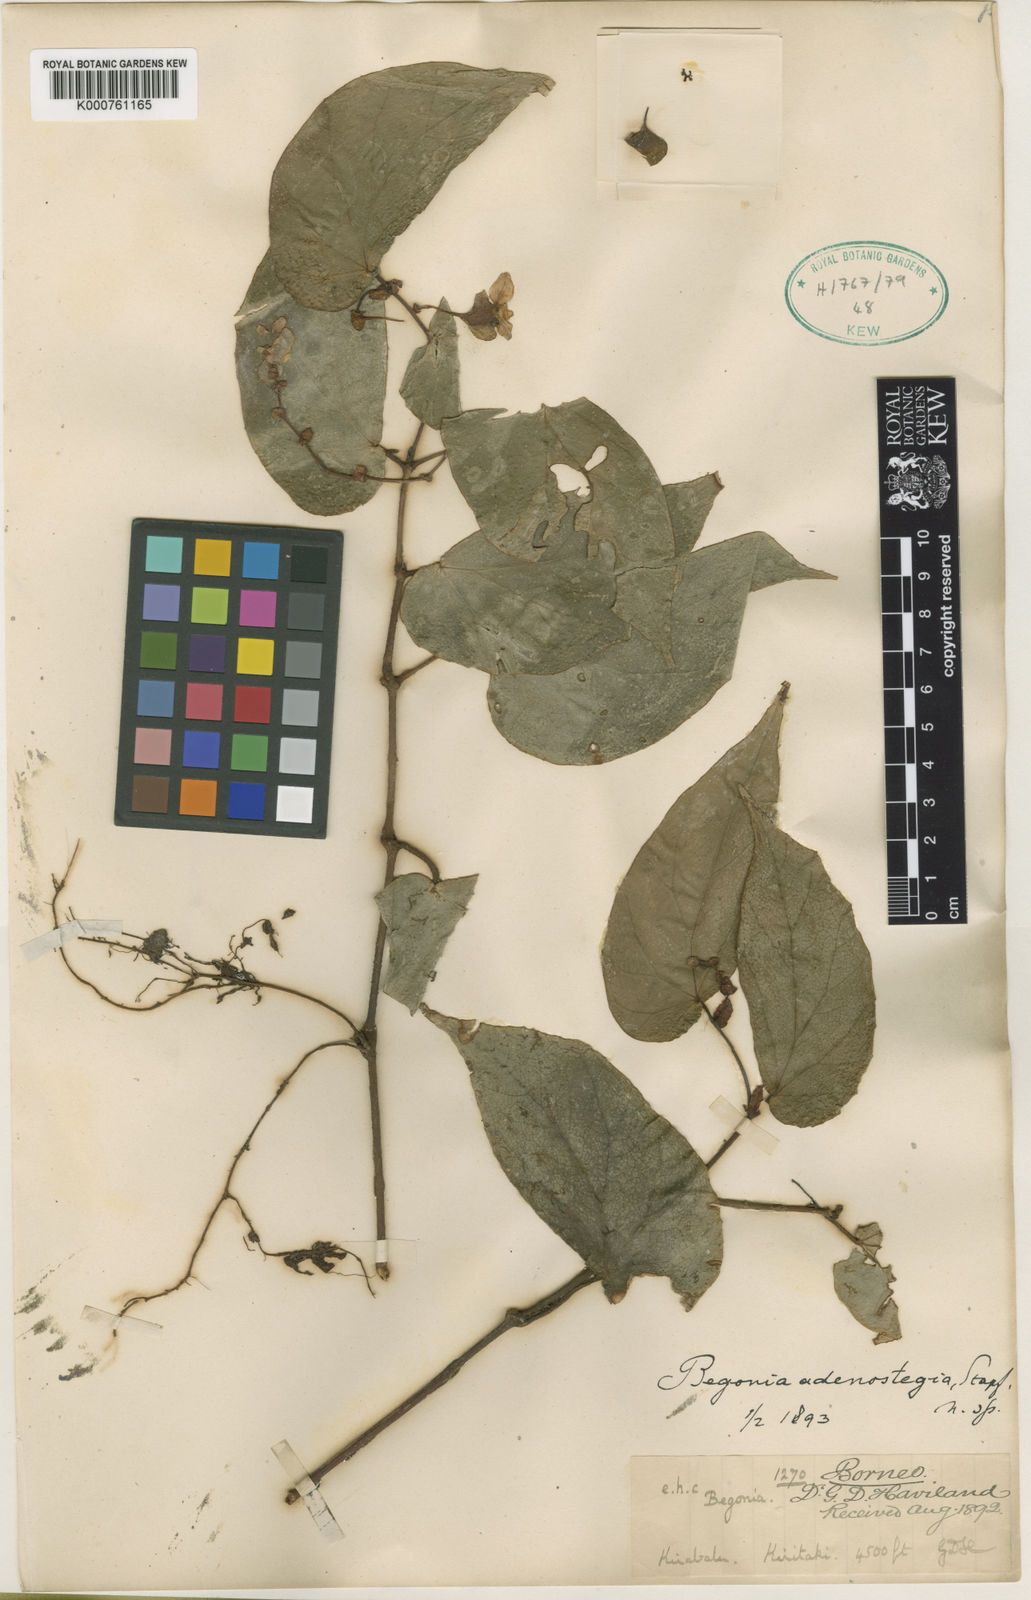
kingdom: Plantae
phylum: Tracheophyta
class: Magnoliopsida
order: Cucurbitales
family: Begoniaceae
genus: Begonia
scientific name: Begonia adenostegia
